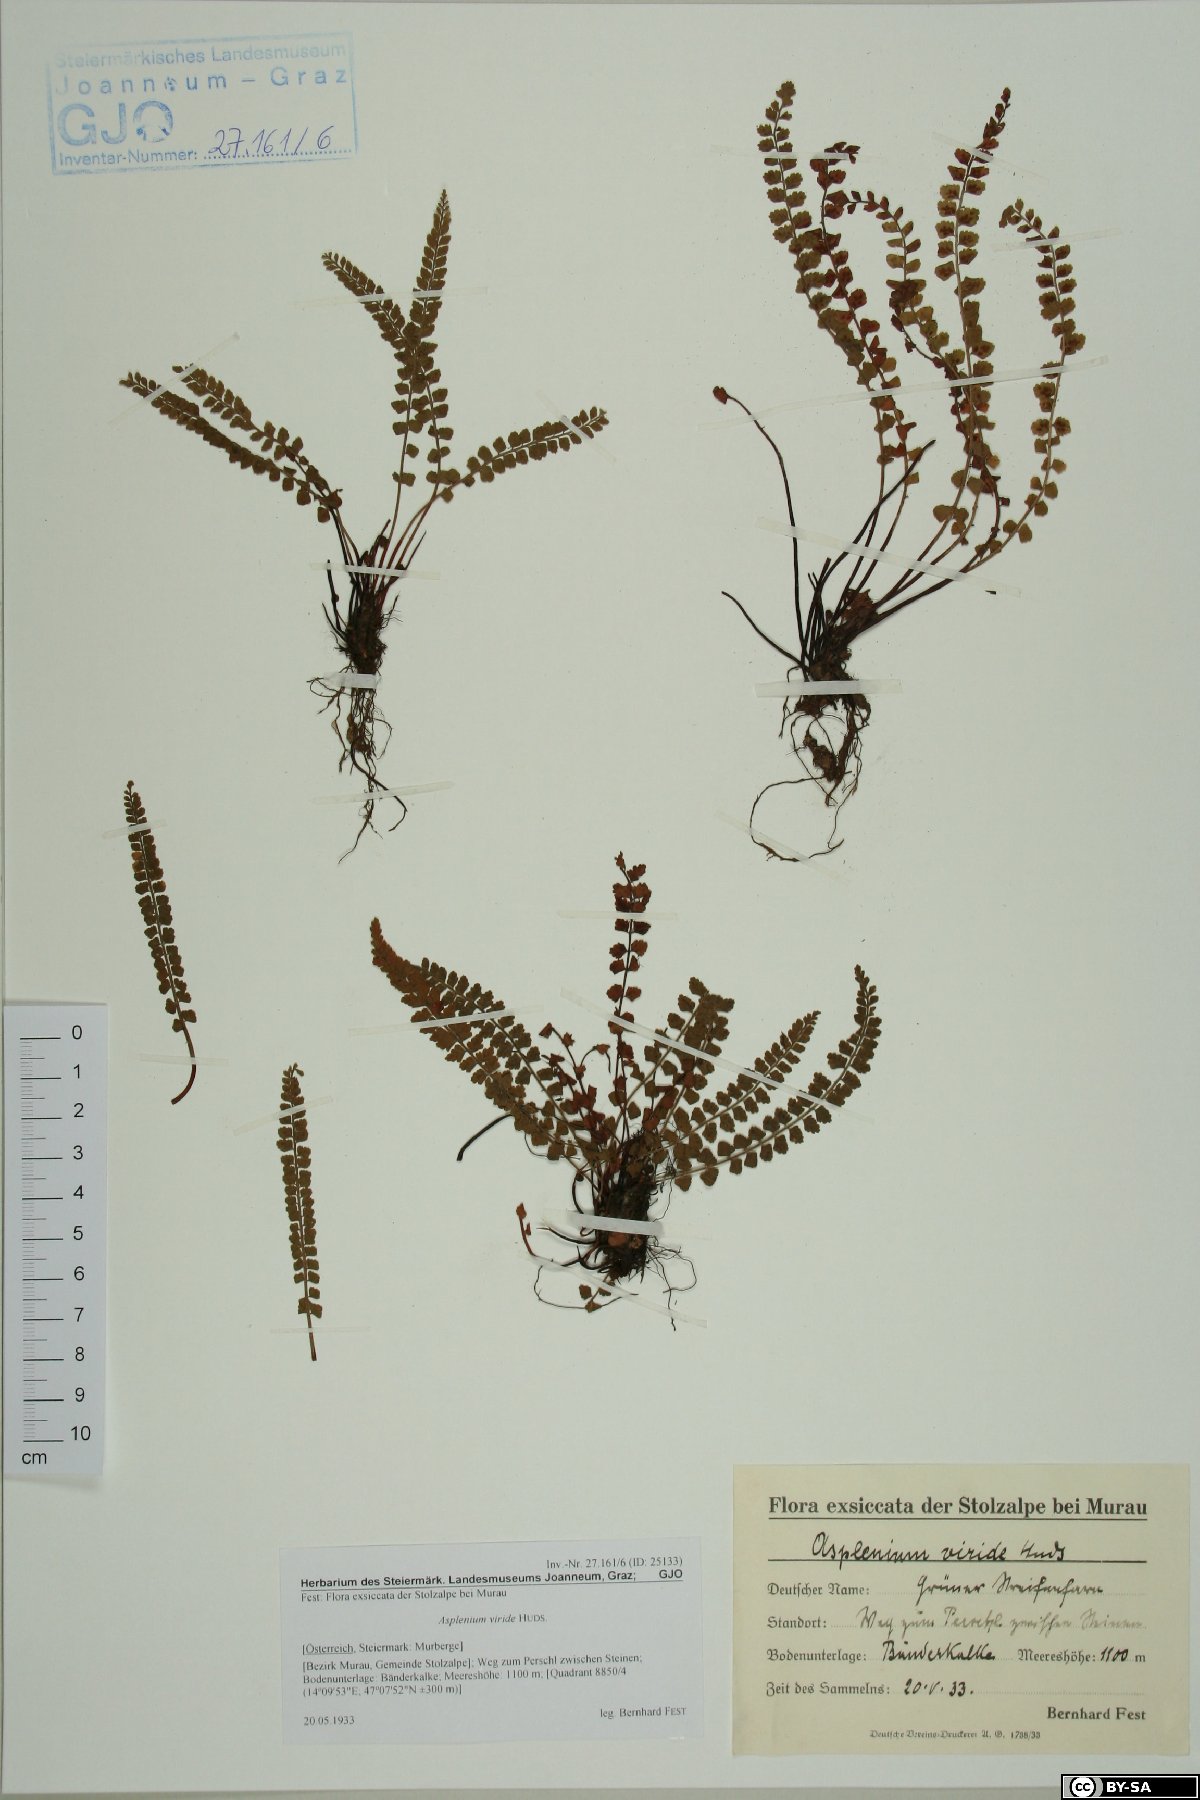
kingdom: Plantae
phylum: Tracheophyta
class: Polypodiopsida
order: Polypodiales
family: Aspleniaceae
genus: Asplenium
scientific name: Asplenium viride
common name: Green spleenwort
